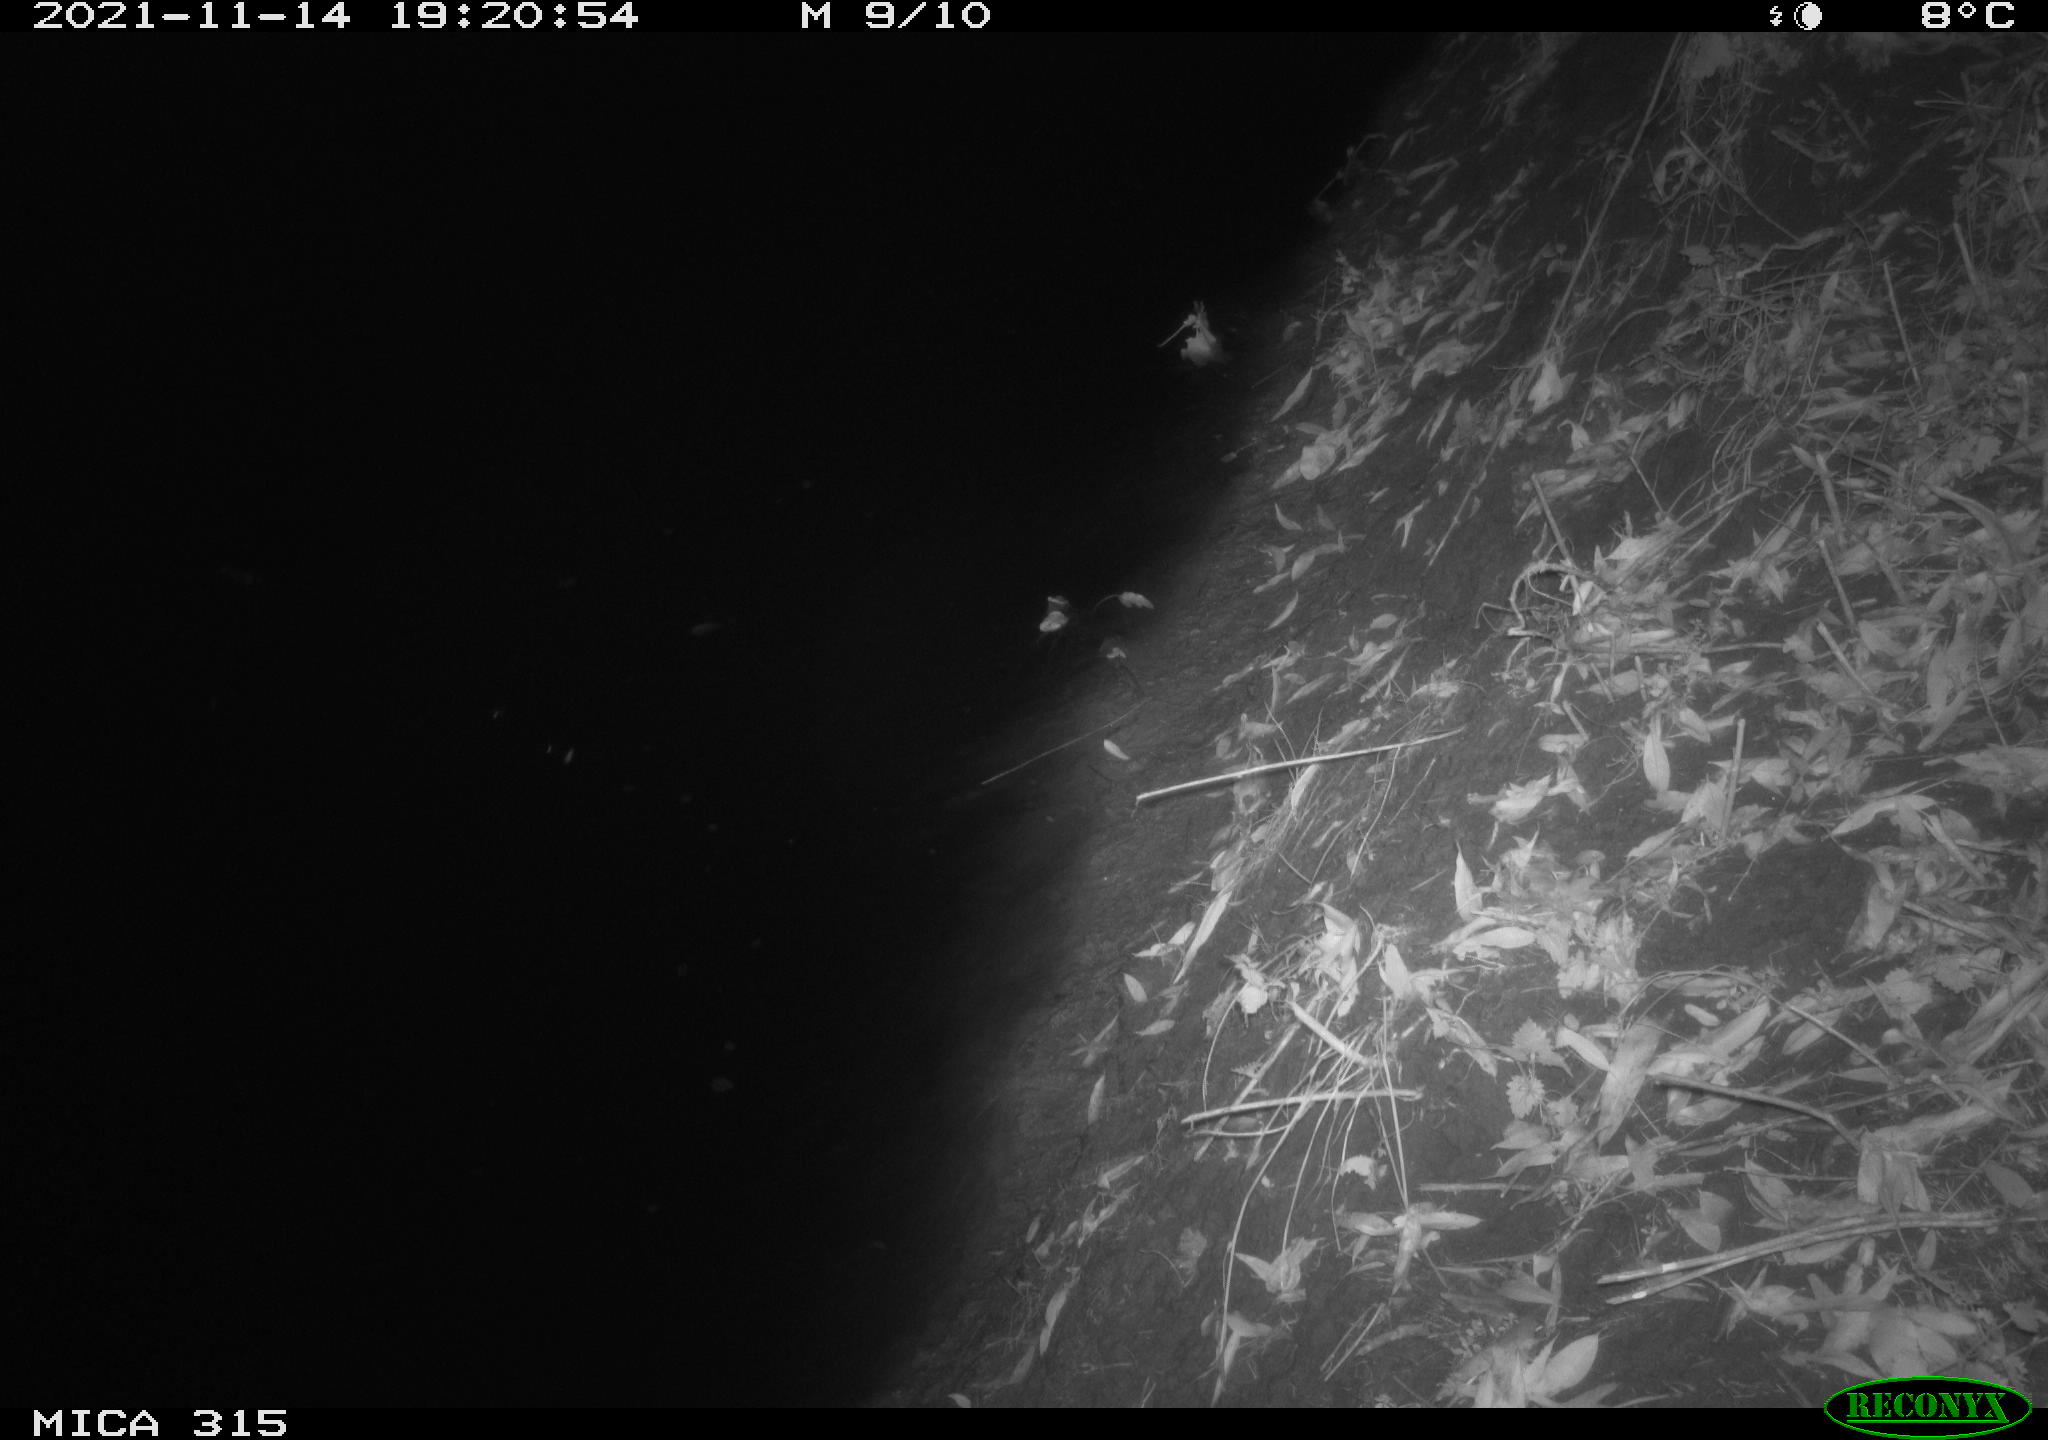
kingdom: Animalia
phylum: Chordata
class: Mammalia
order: Rodentia
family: Muridae
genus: Rattus
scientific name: Rattus norvegicus
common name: Brown rat
